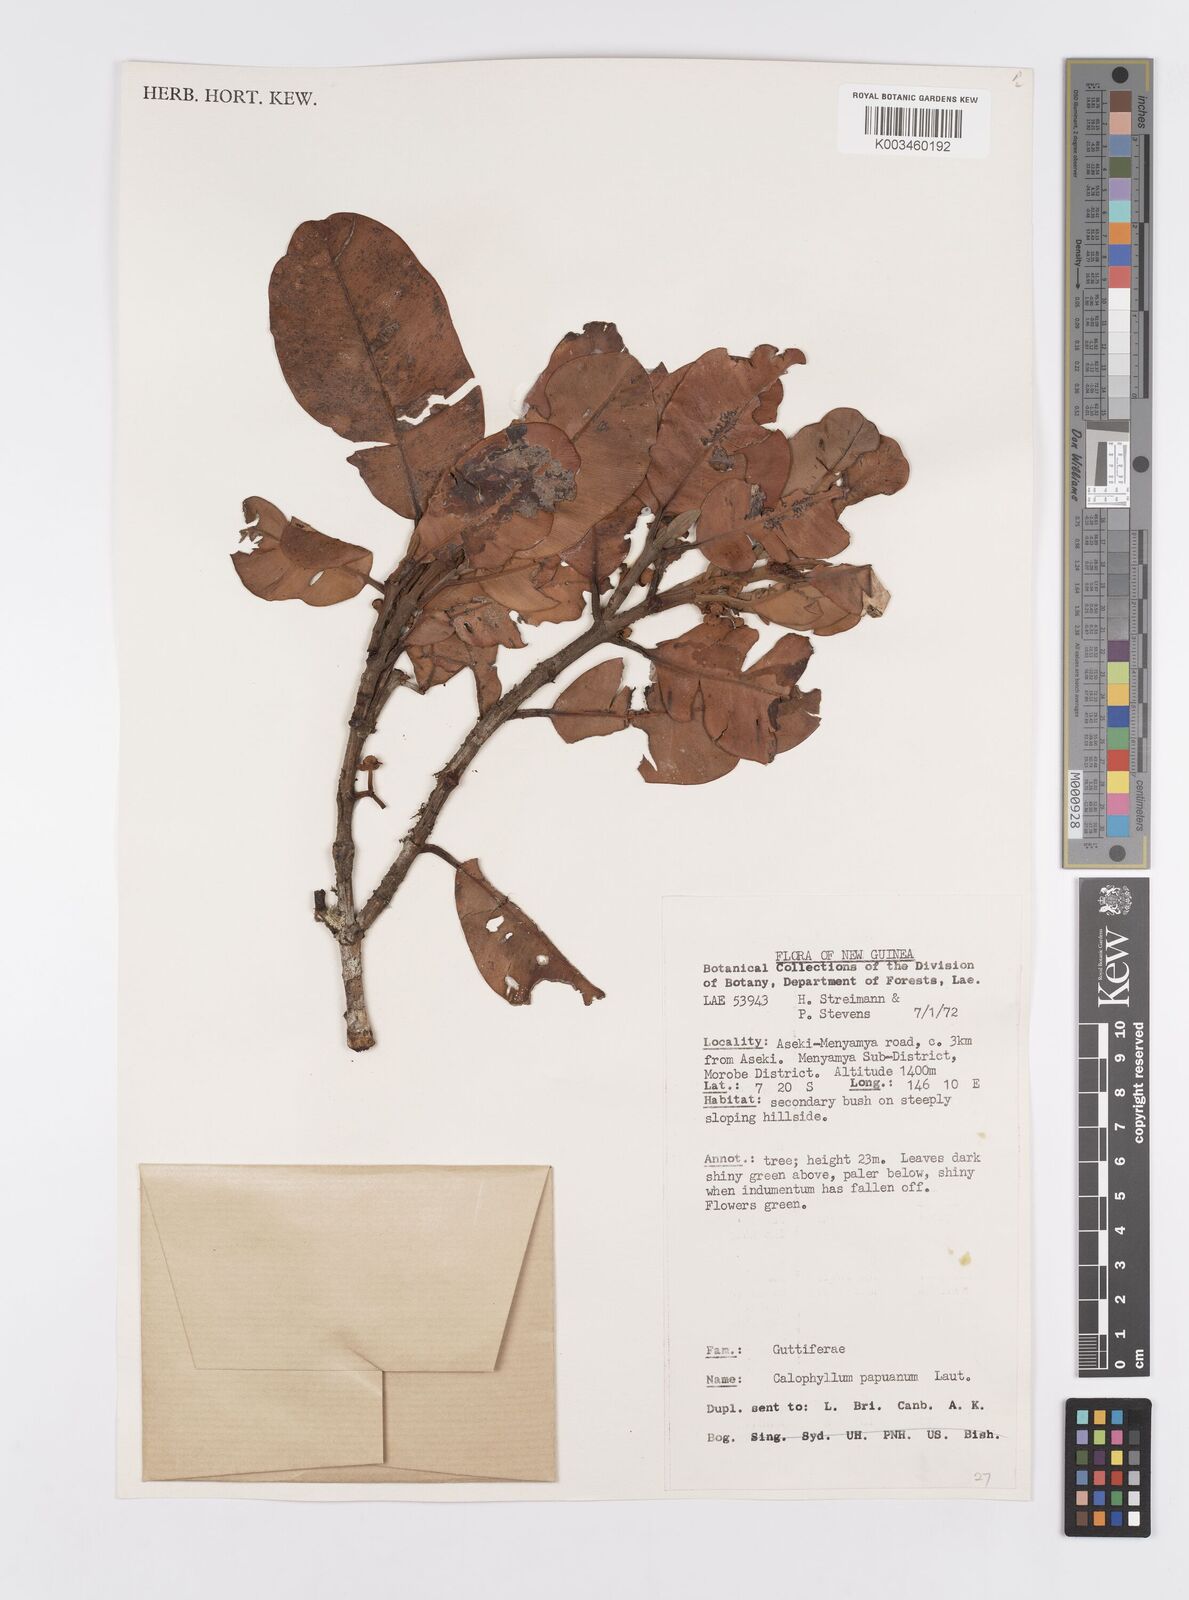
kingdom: Plantae
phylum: Tracheophyta
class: Magnoliopsida
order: Malpighiales
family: Calophyllaceae
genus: Calophyllum
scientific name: Calophyllum papuanum
